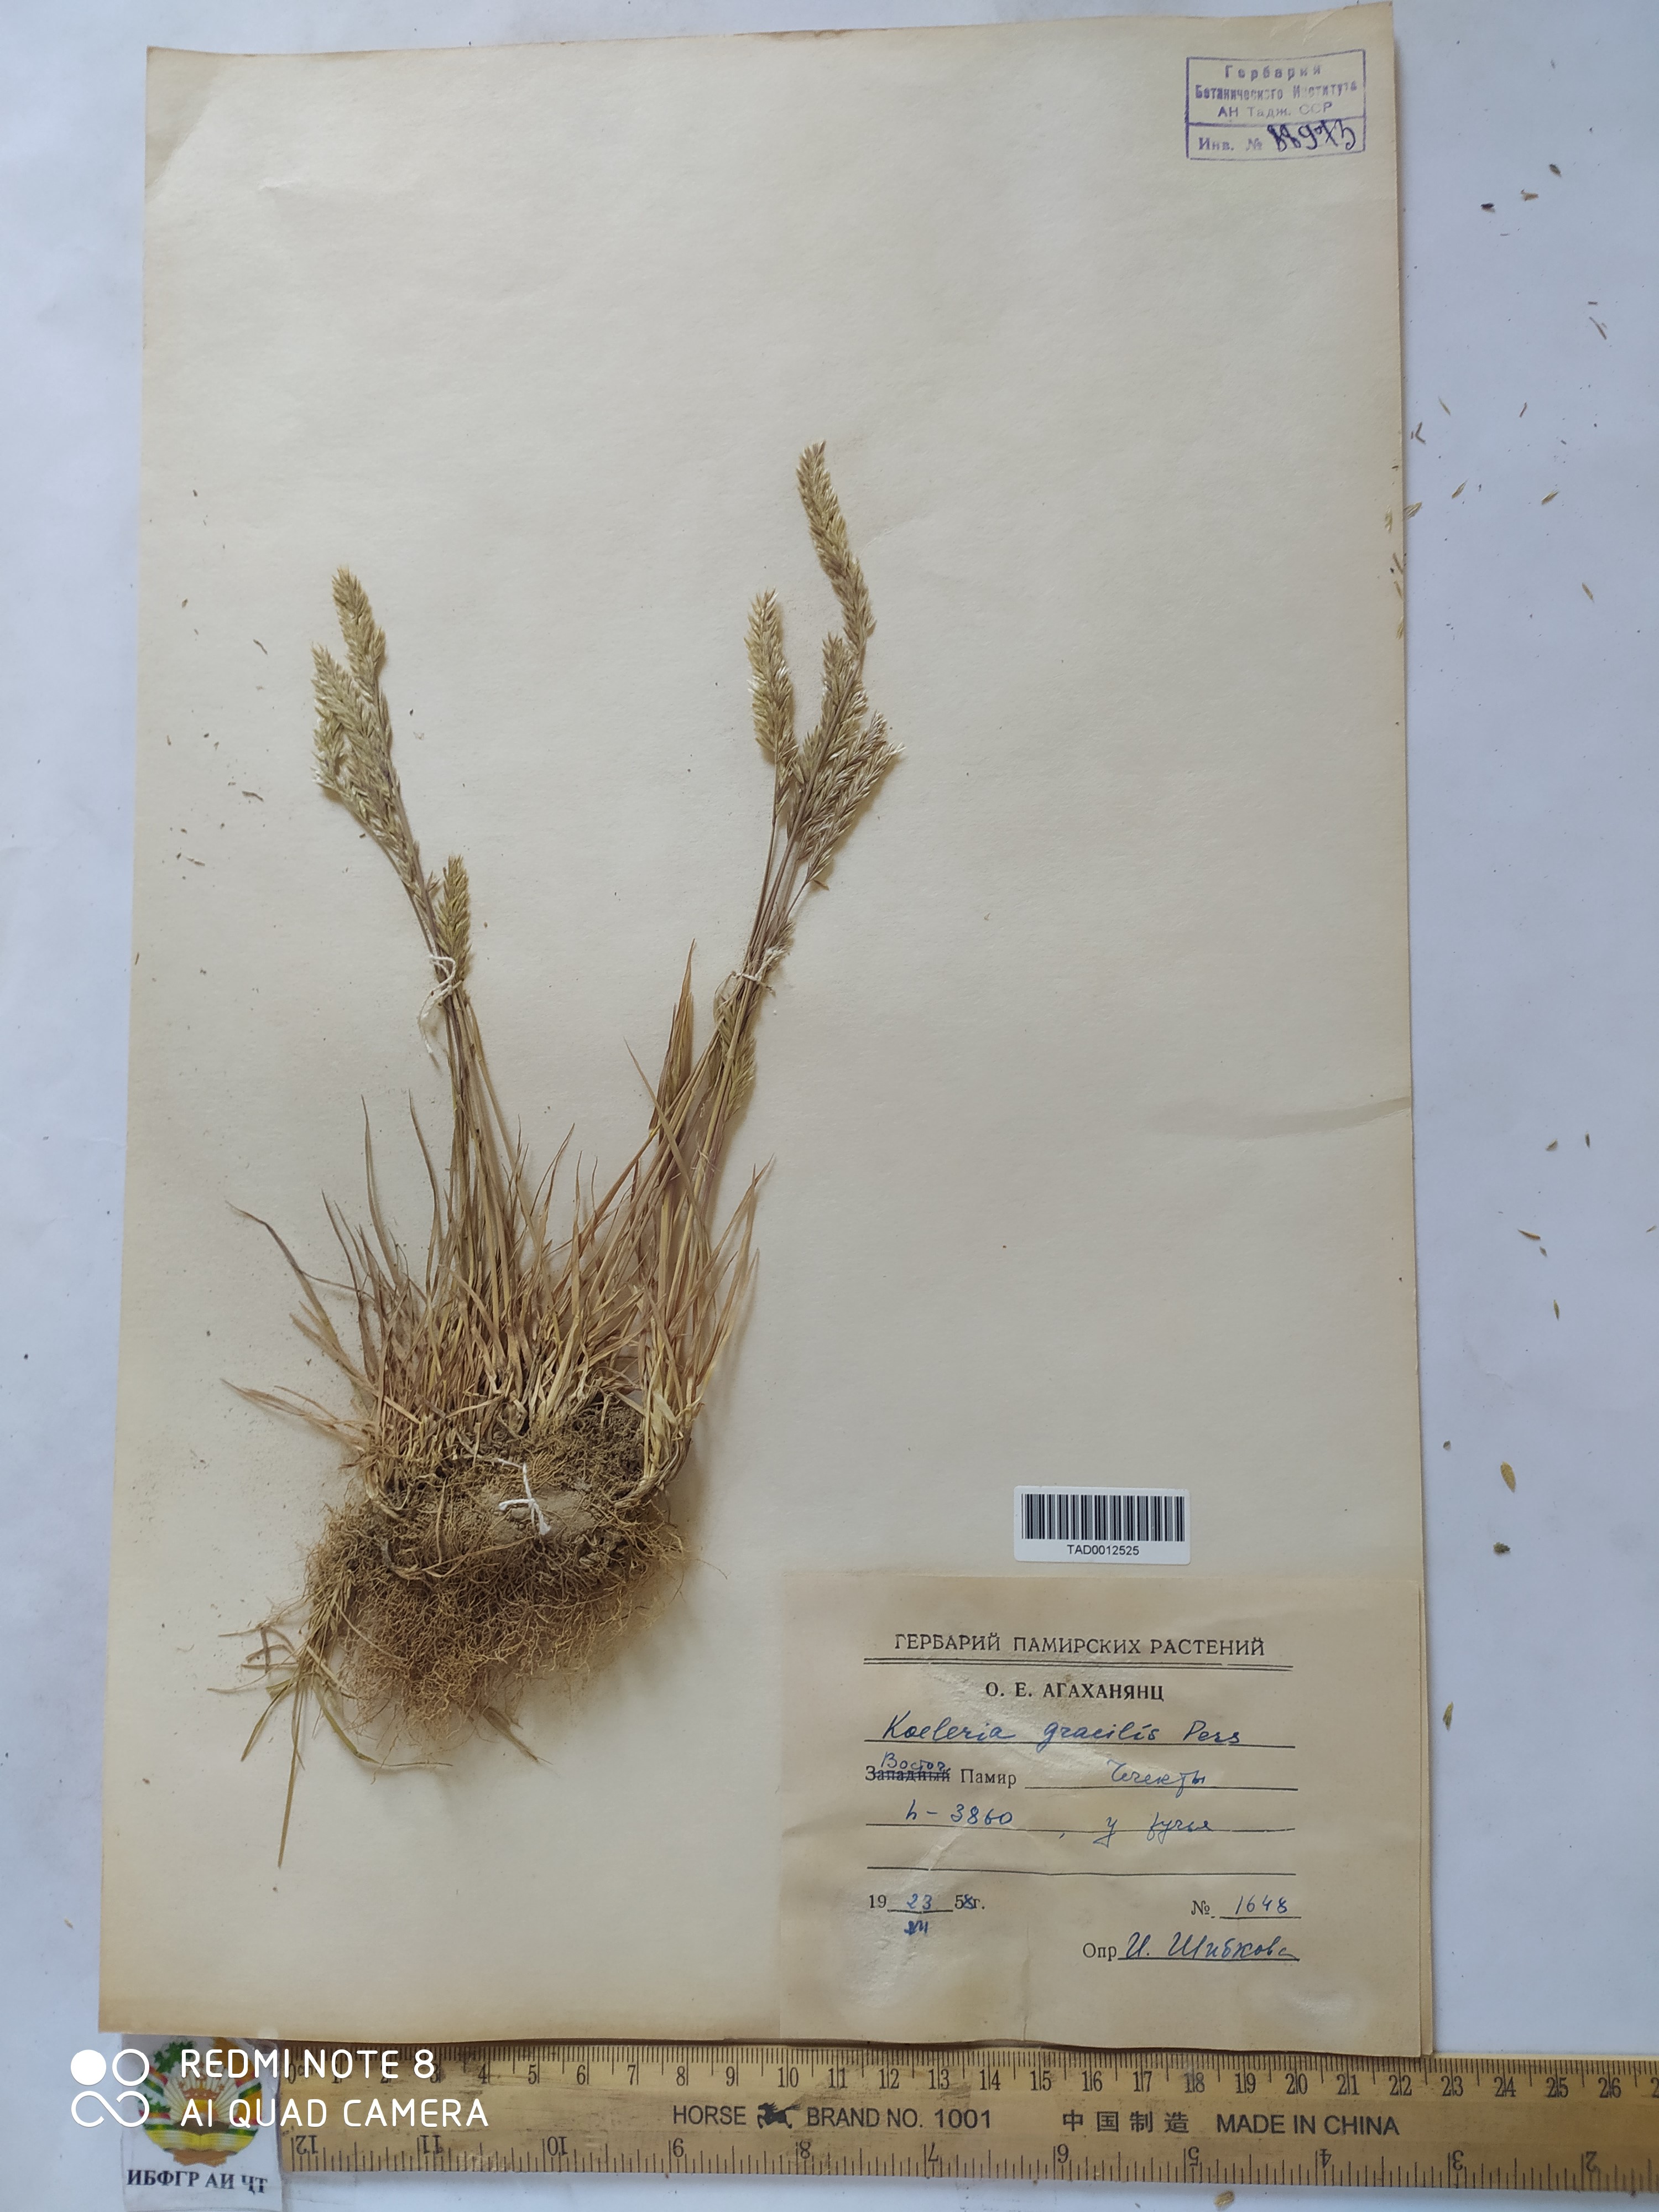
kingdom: Plantae
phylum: Tracheophyta
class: Liliopsida
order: Poales
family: Poaceae
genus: Koeleria
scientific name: Koeleria macrantha
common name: Crested hair-grass
